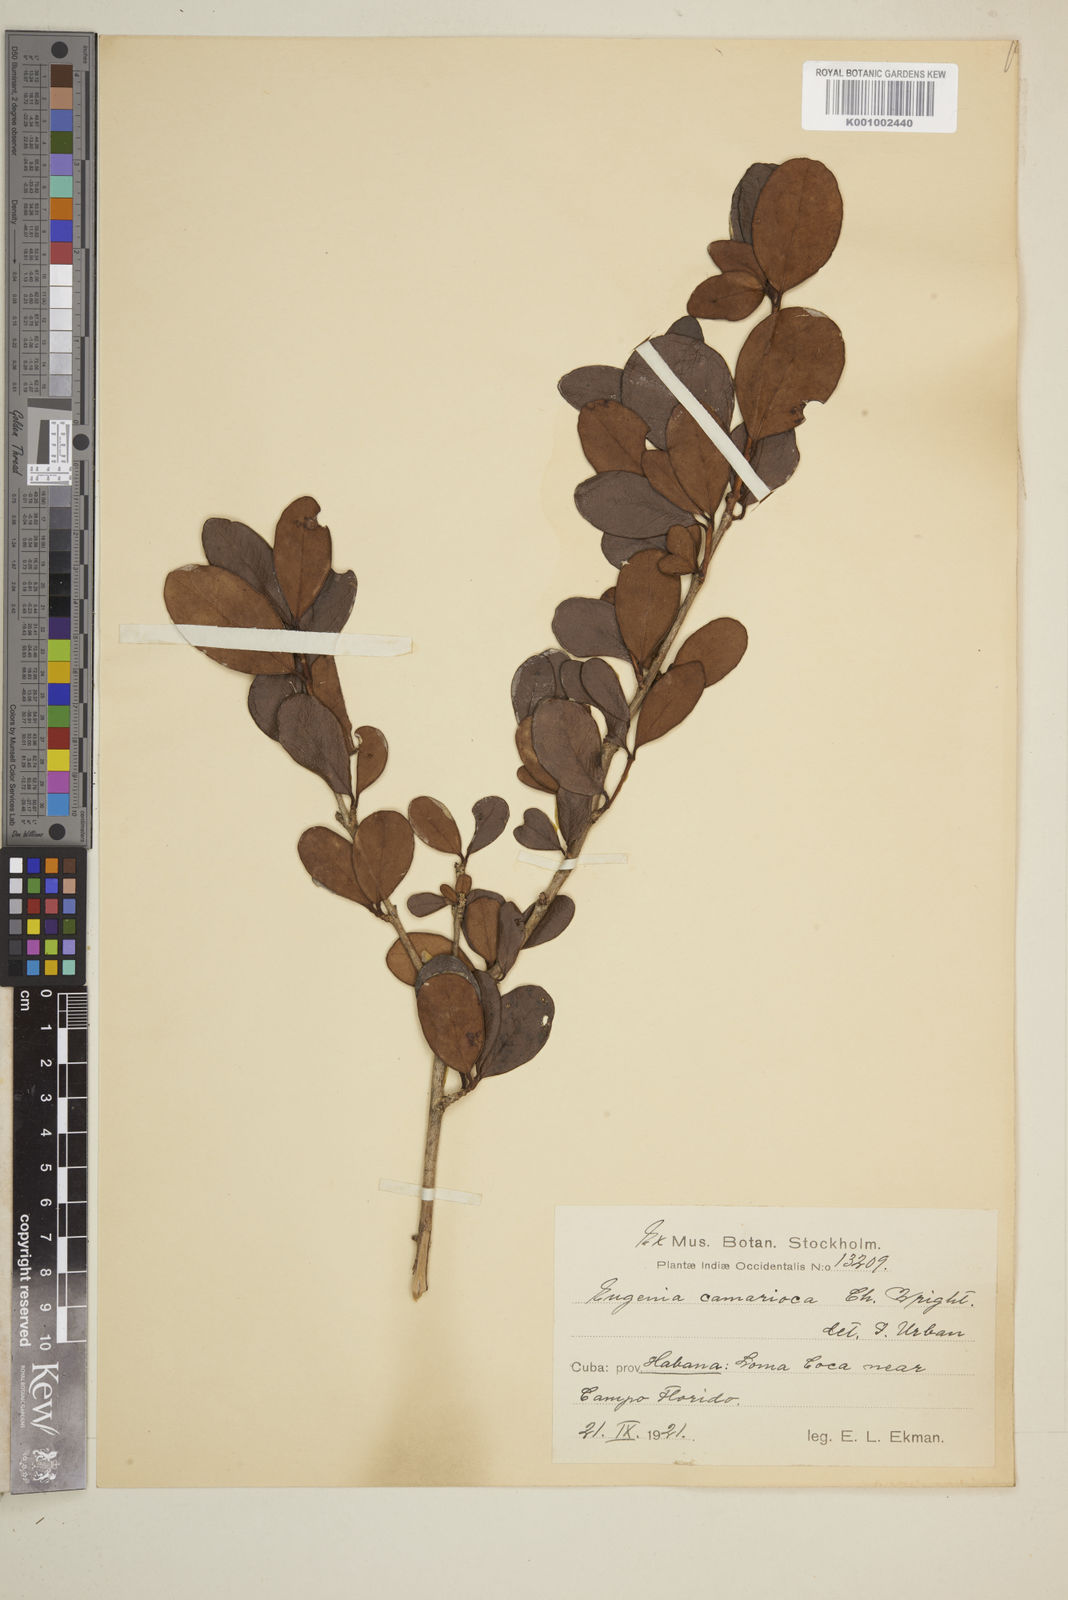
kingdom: Plantae
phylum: Tracheophyta
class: Magnoliopsida
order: Myrtales
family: Myrtaceae
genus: Eugenia
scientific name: Eugenia camarioca
